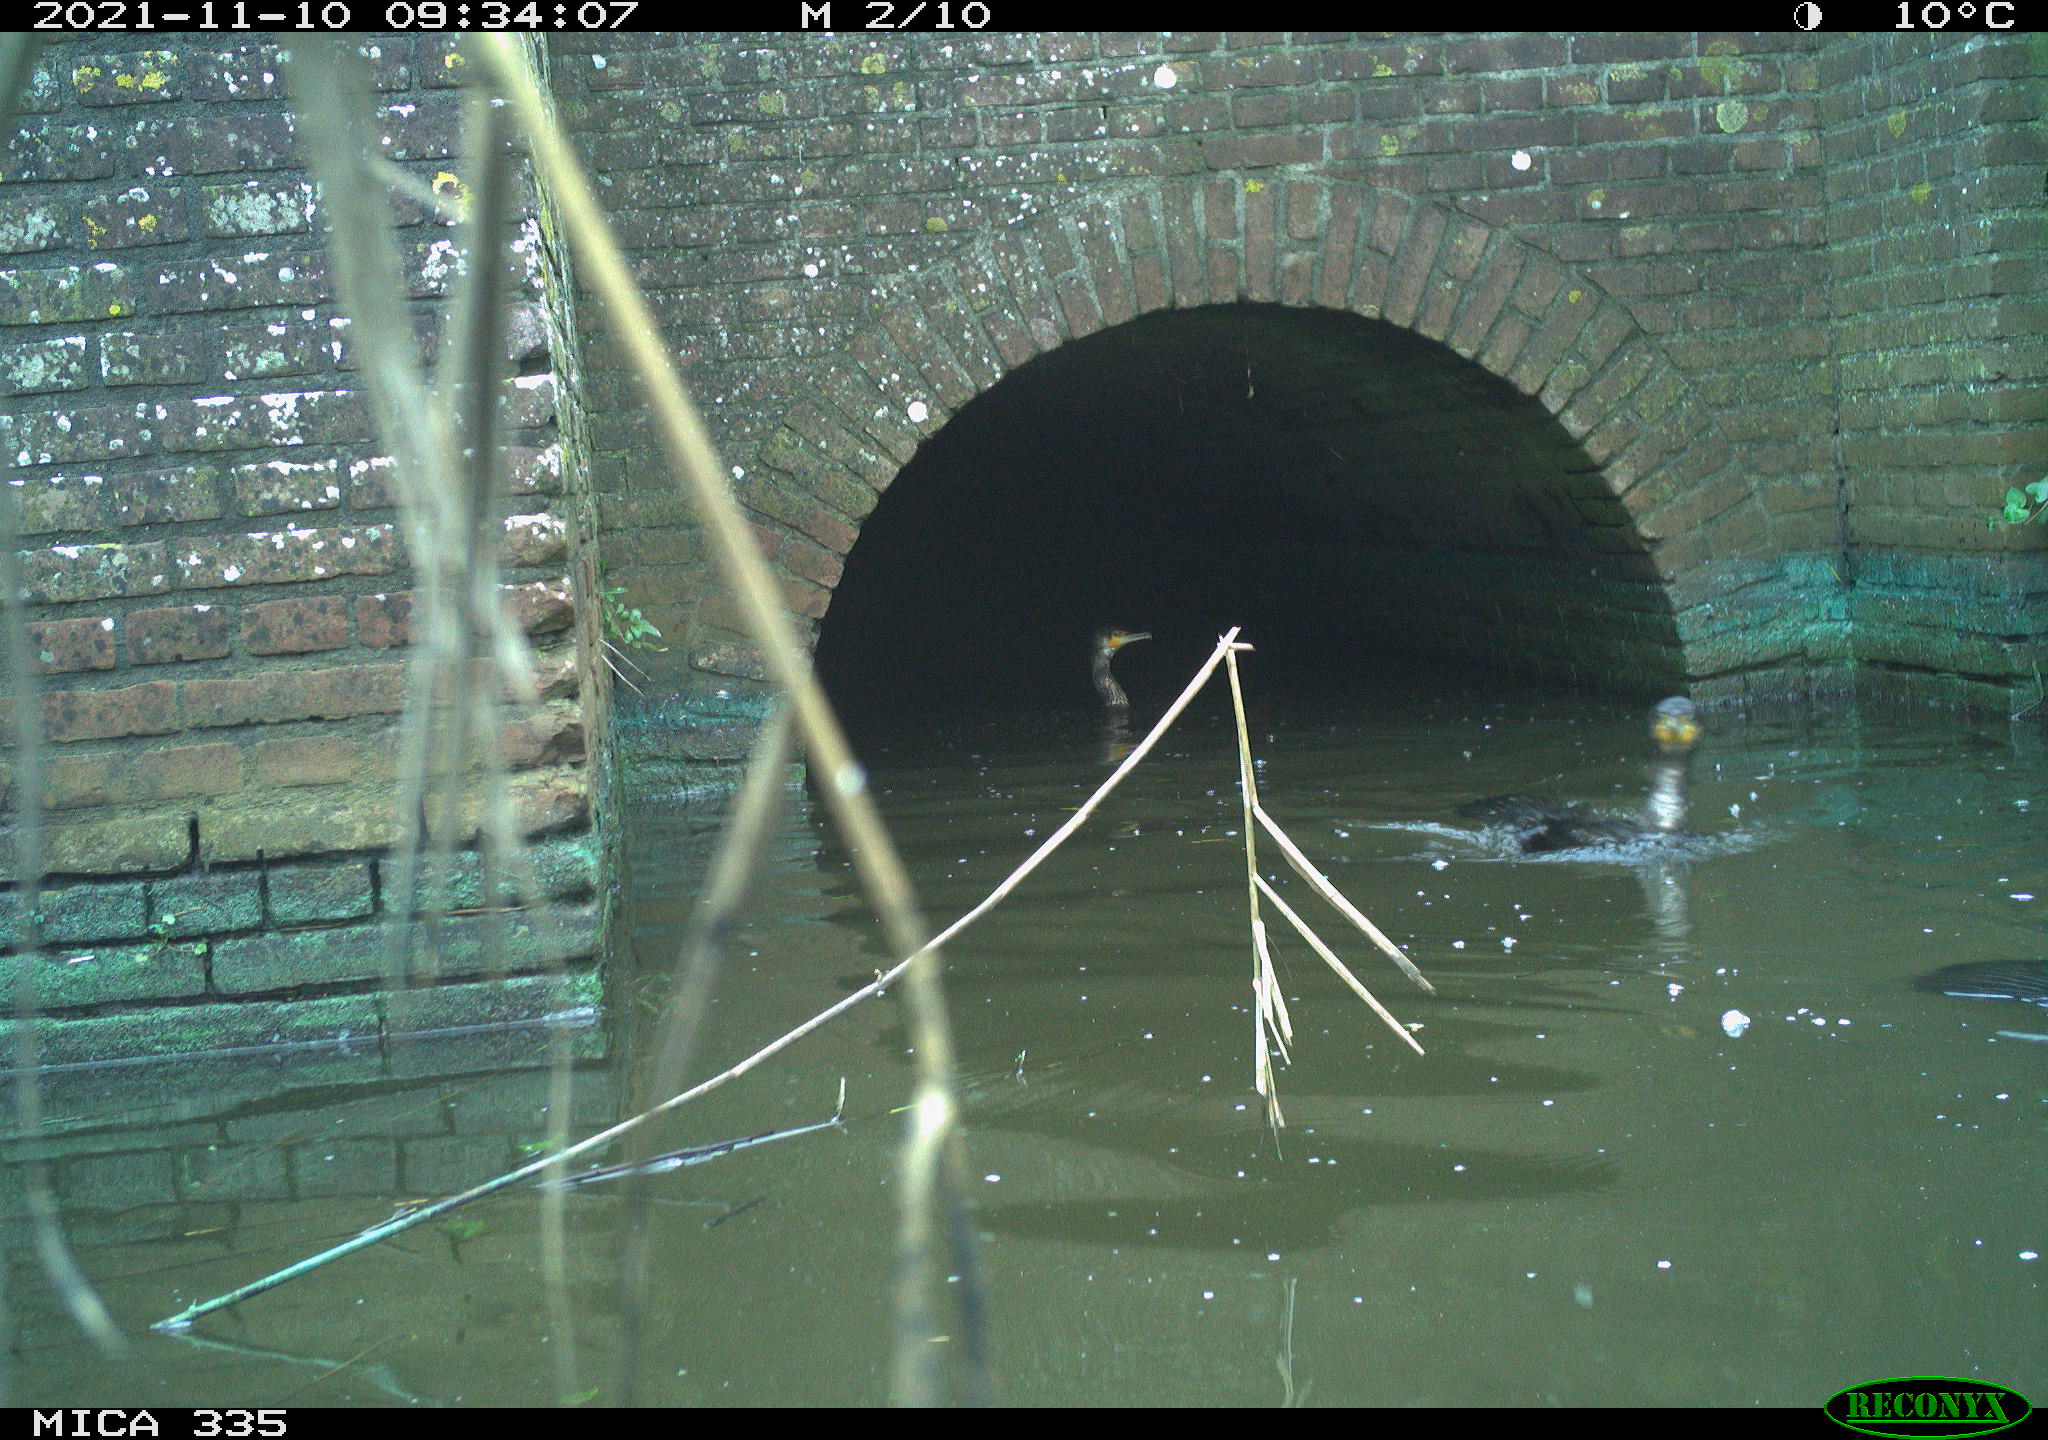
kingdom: Animalia
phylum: Chordata
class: Aves
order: Suliformes
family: Phalacrocoracidae
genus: Phalacrocorax
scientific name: Phalacrocorax carbo
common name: Great cormorant
